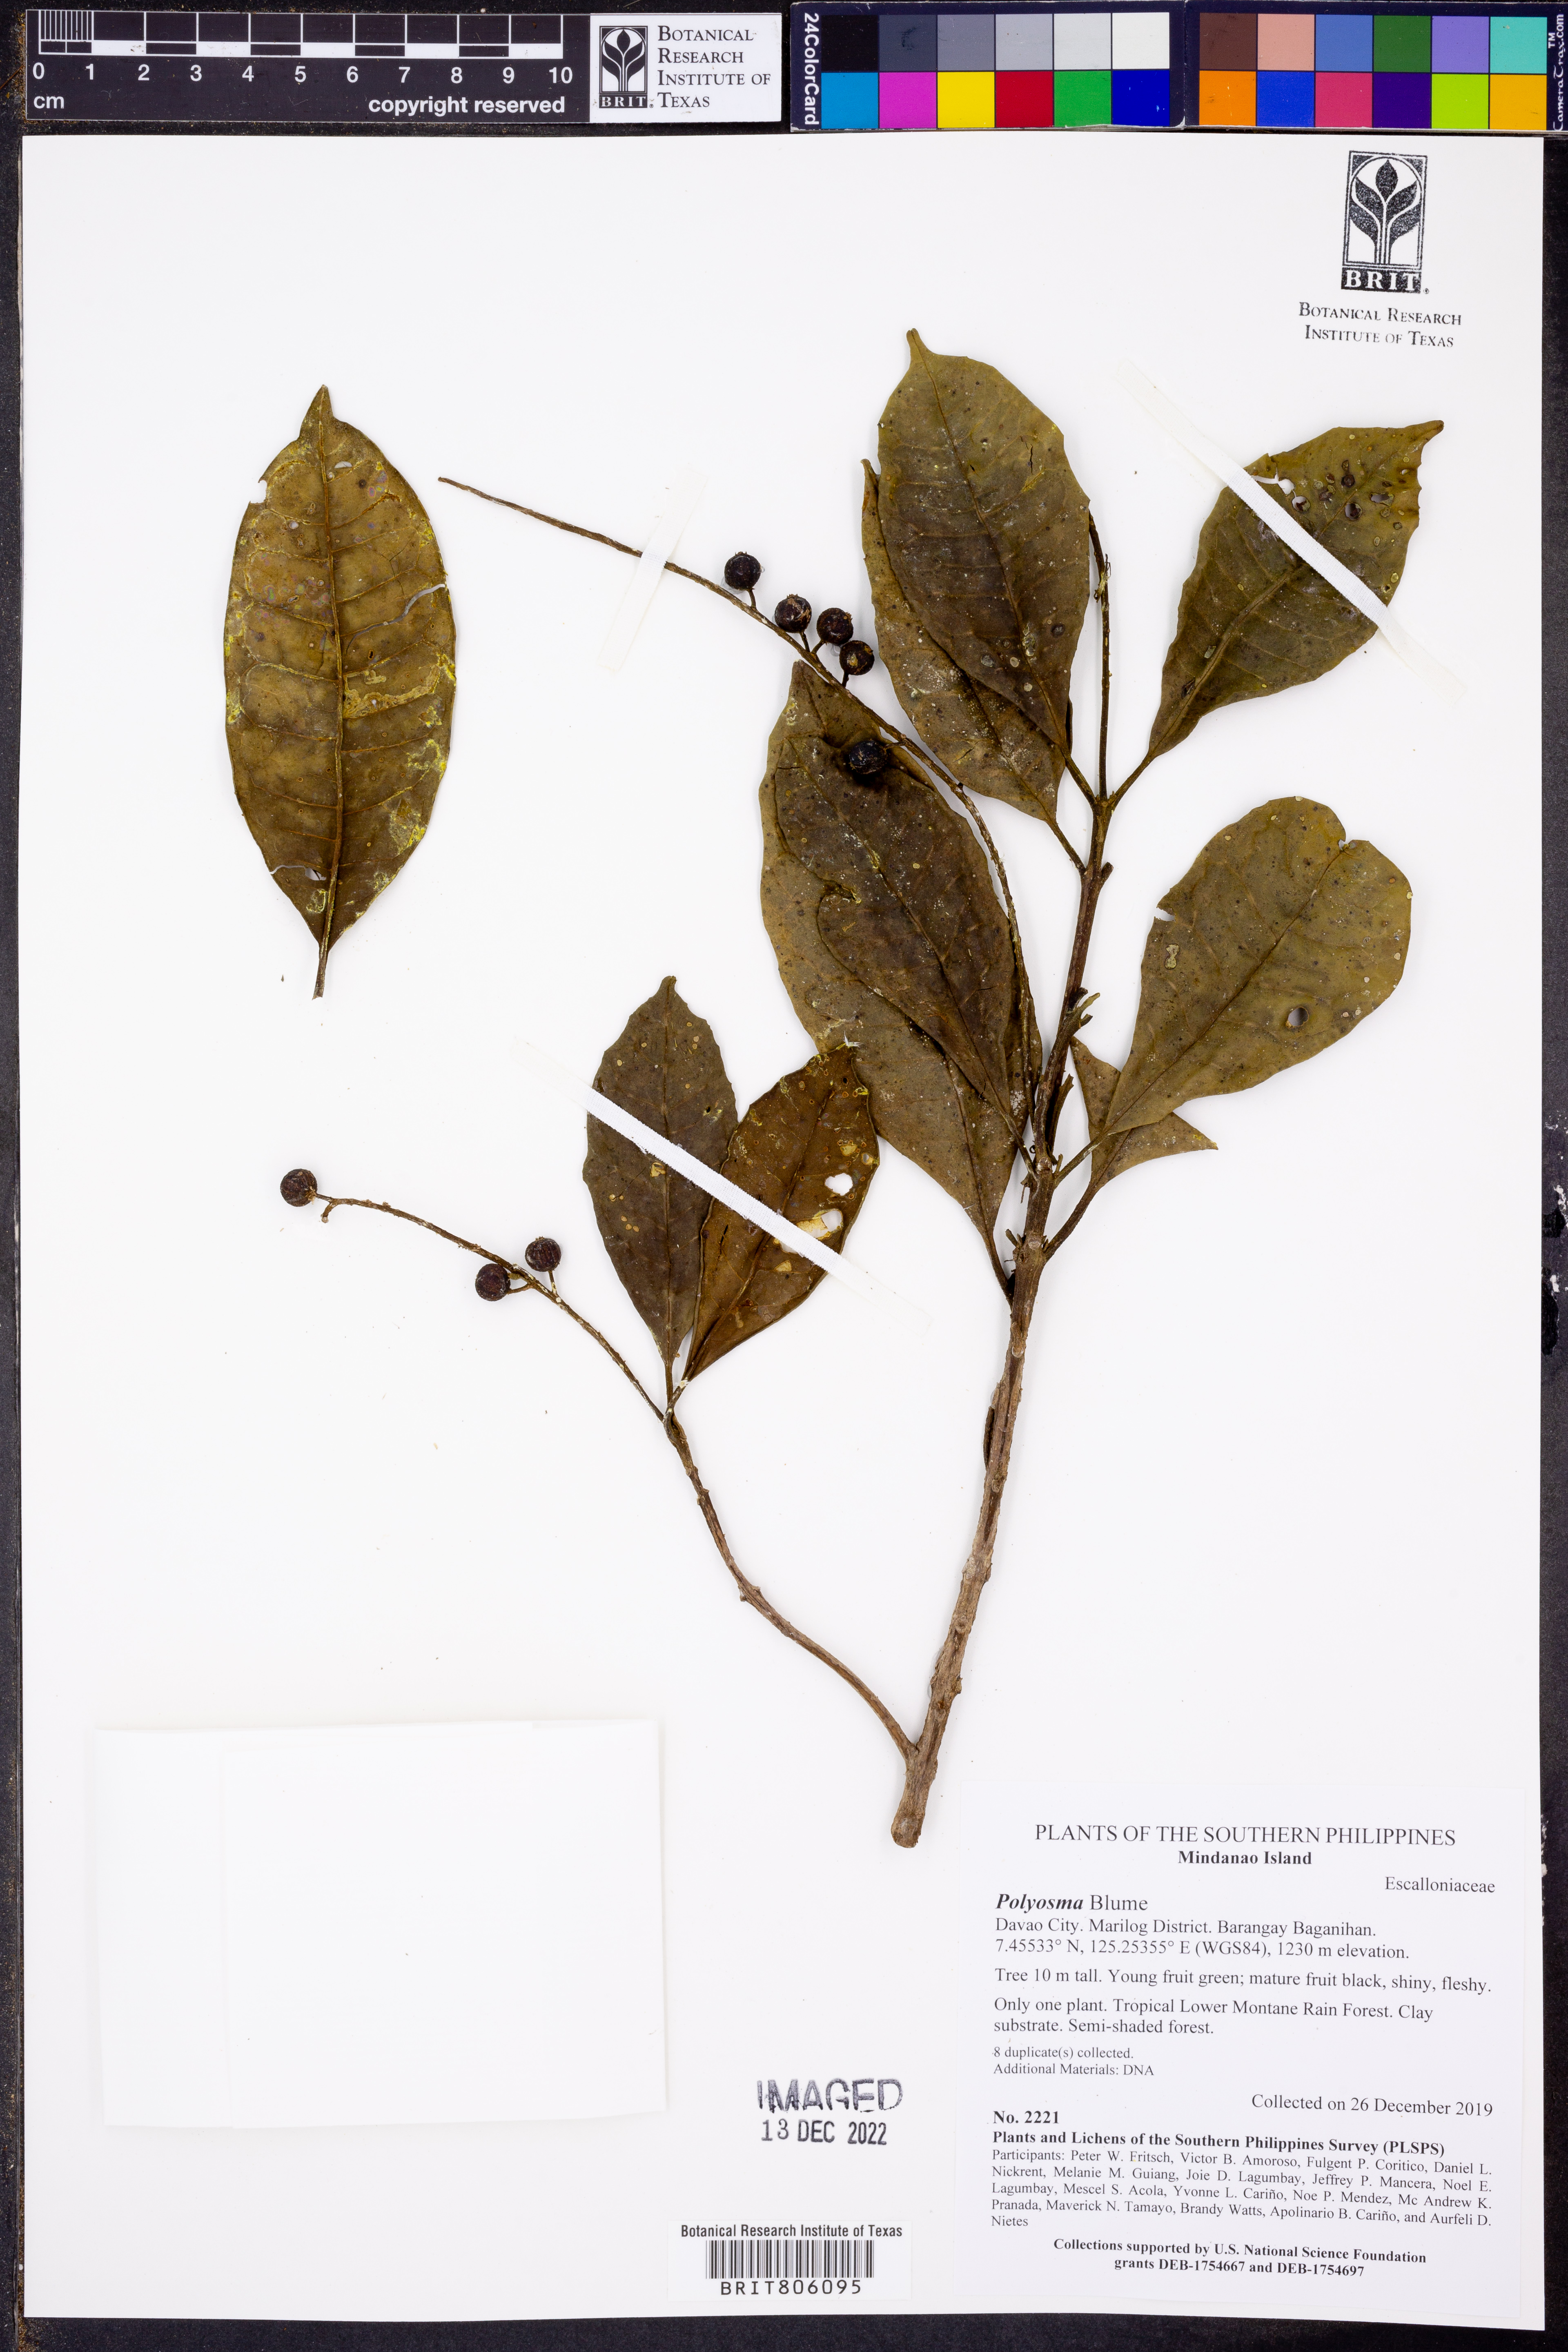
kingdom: Plantae
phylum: Tracheophyta
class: Magnoliopsida
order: Gentianales
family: Rubiaceae
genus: Psychotria
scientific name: Psychotria
